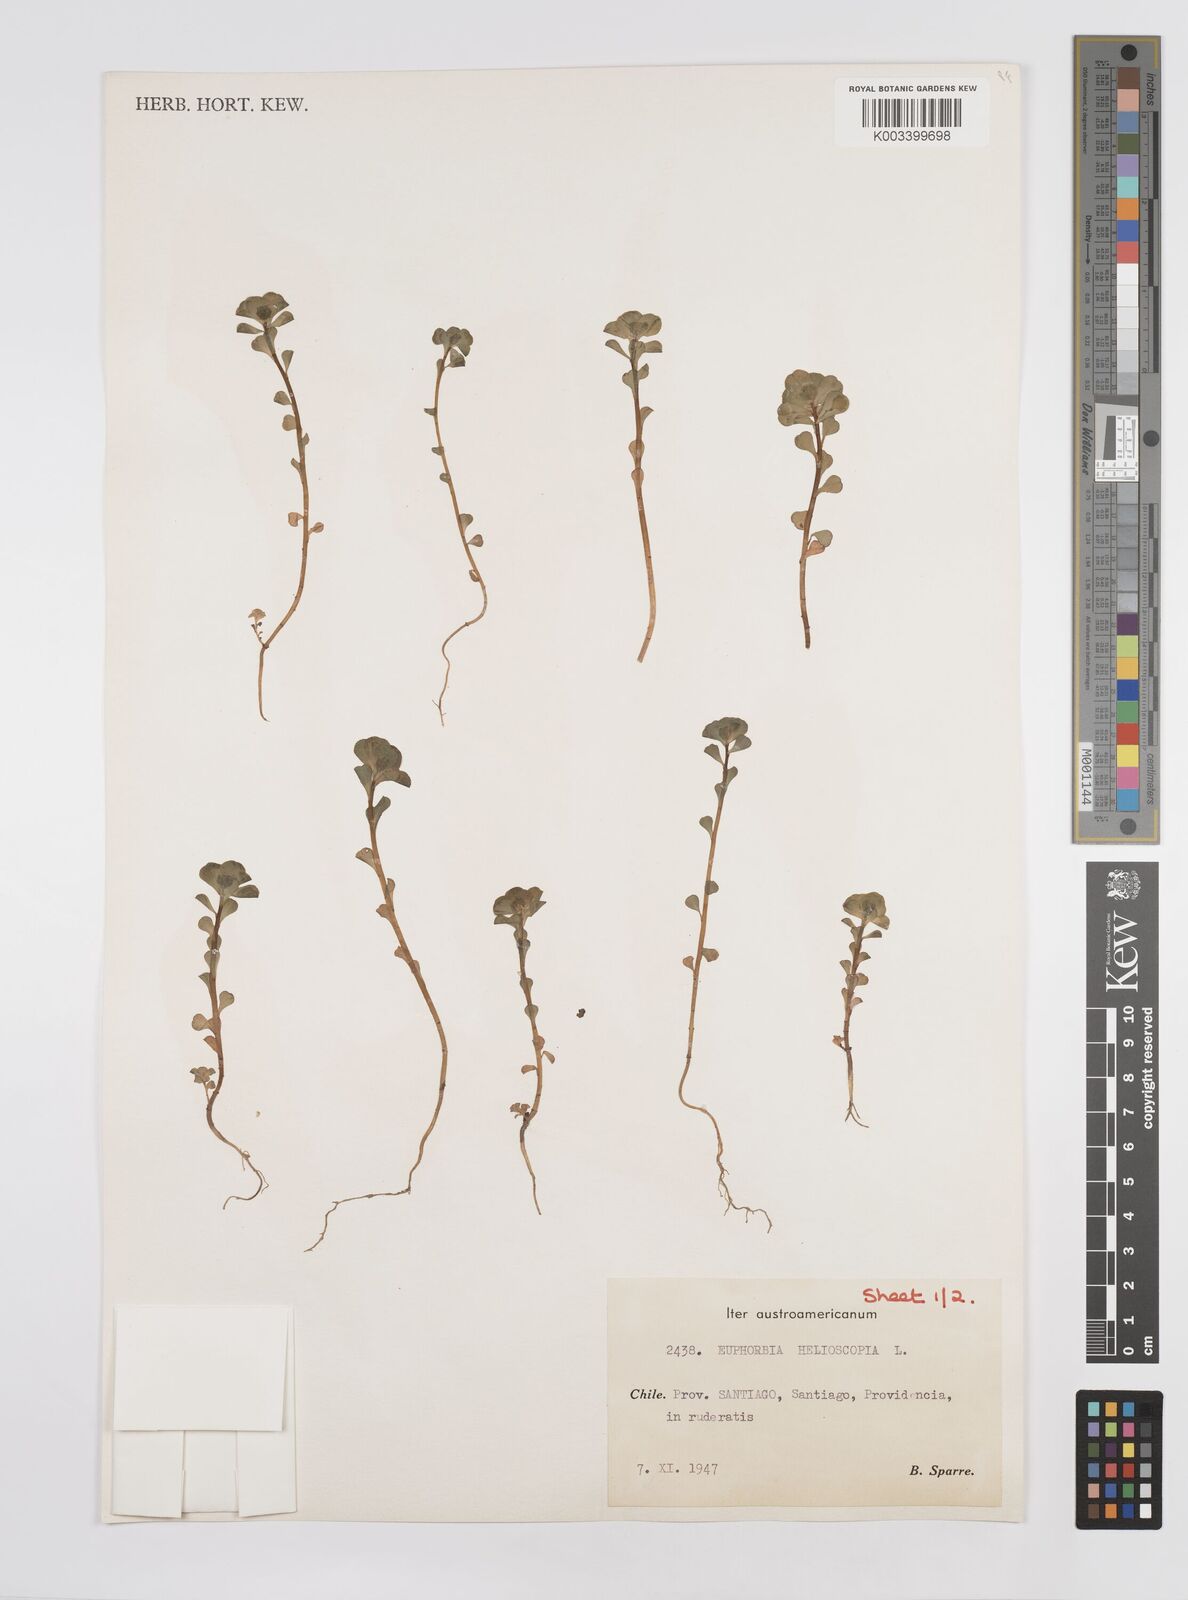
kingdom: Plantae
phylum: Tracheophyta
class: Magnoliopsida
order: Malpighiales
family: Euphorbiaceae
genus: Euphorbia
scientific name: Euphorbia helioscopia
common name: Sun spurge
